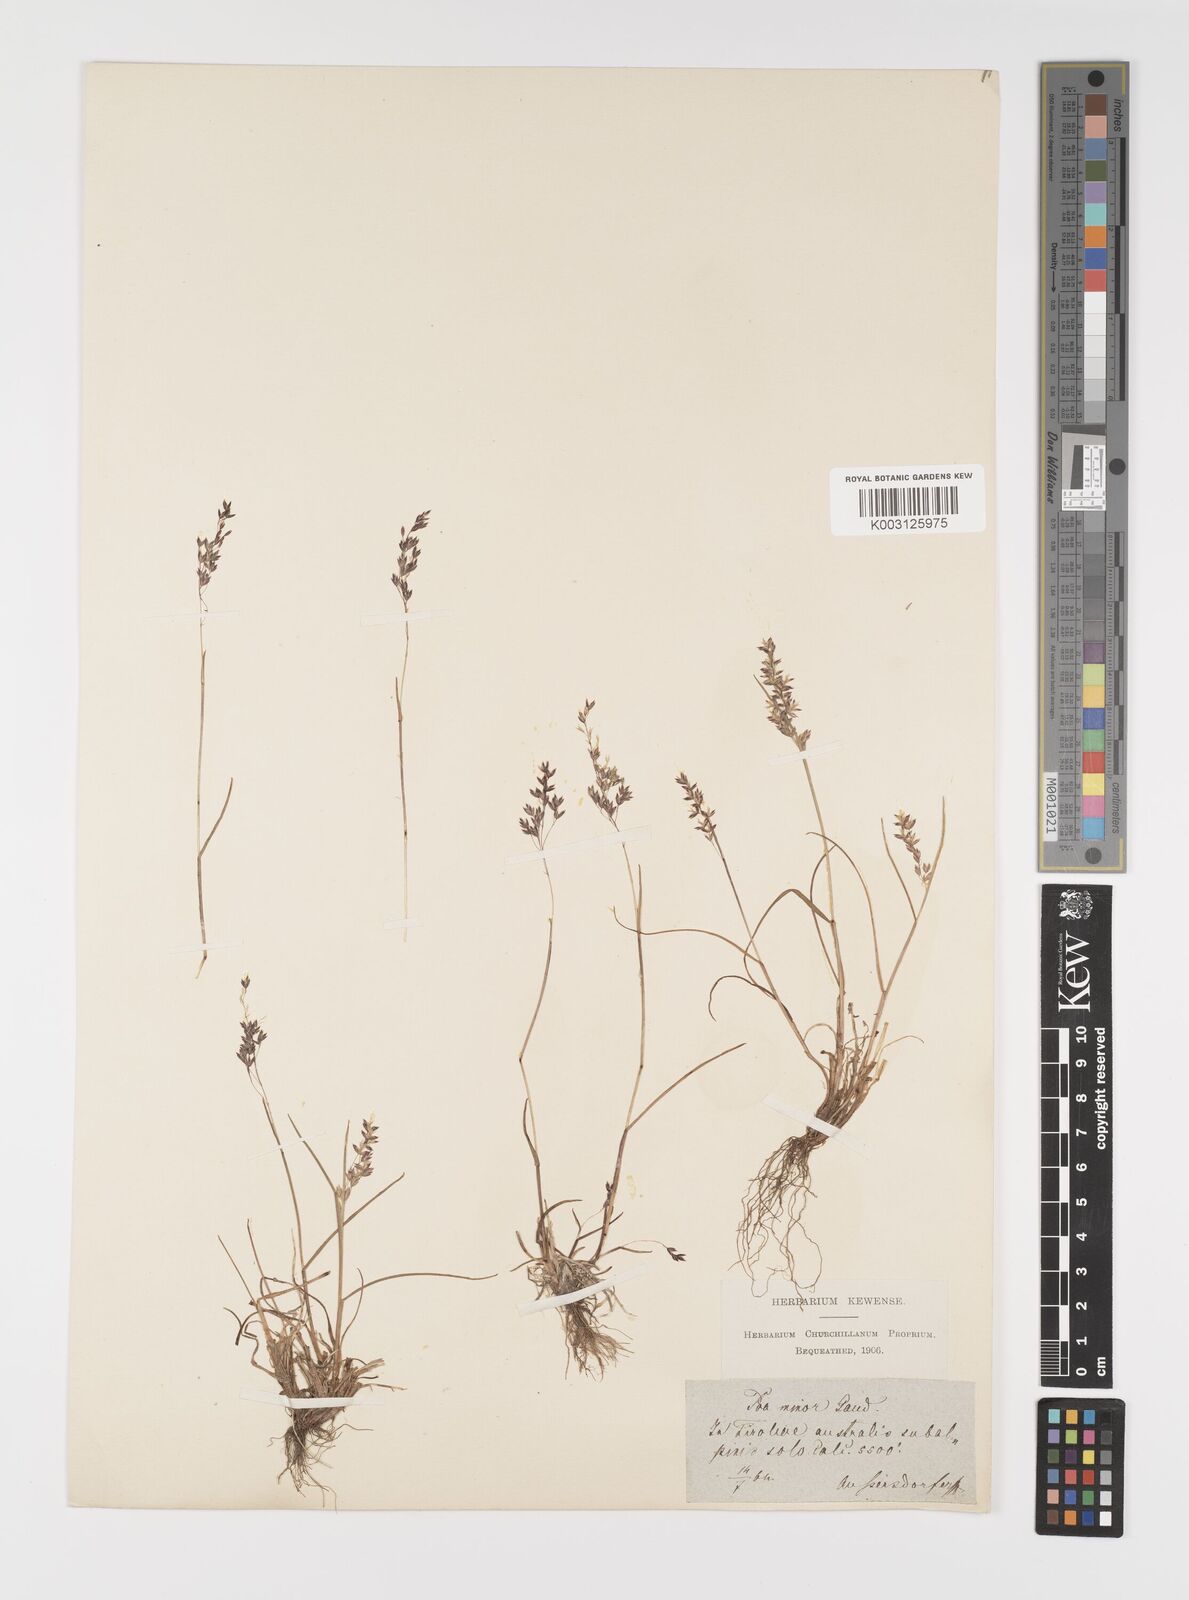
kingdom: Plantae
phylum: Tracheophyta
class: Liliopsida
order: Poales
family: Poaceae
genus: Poa
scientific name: Poa minor
